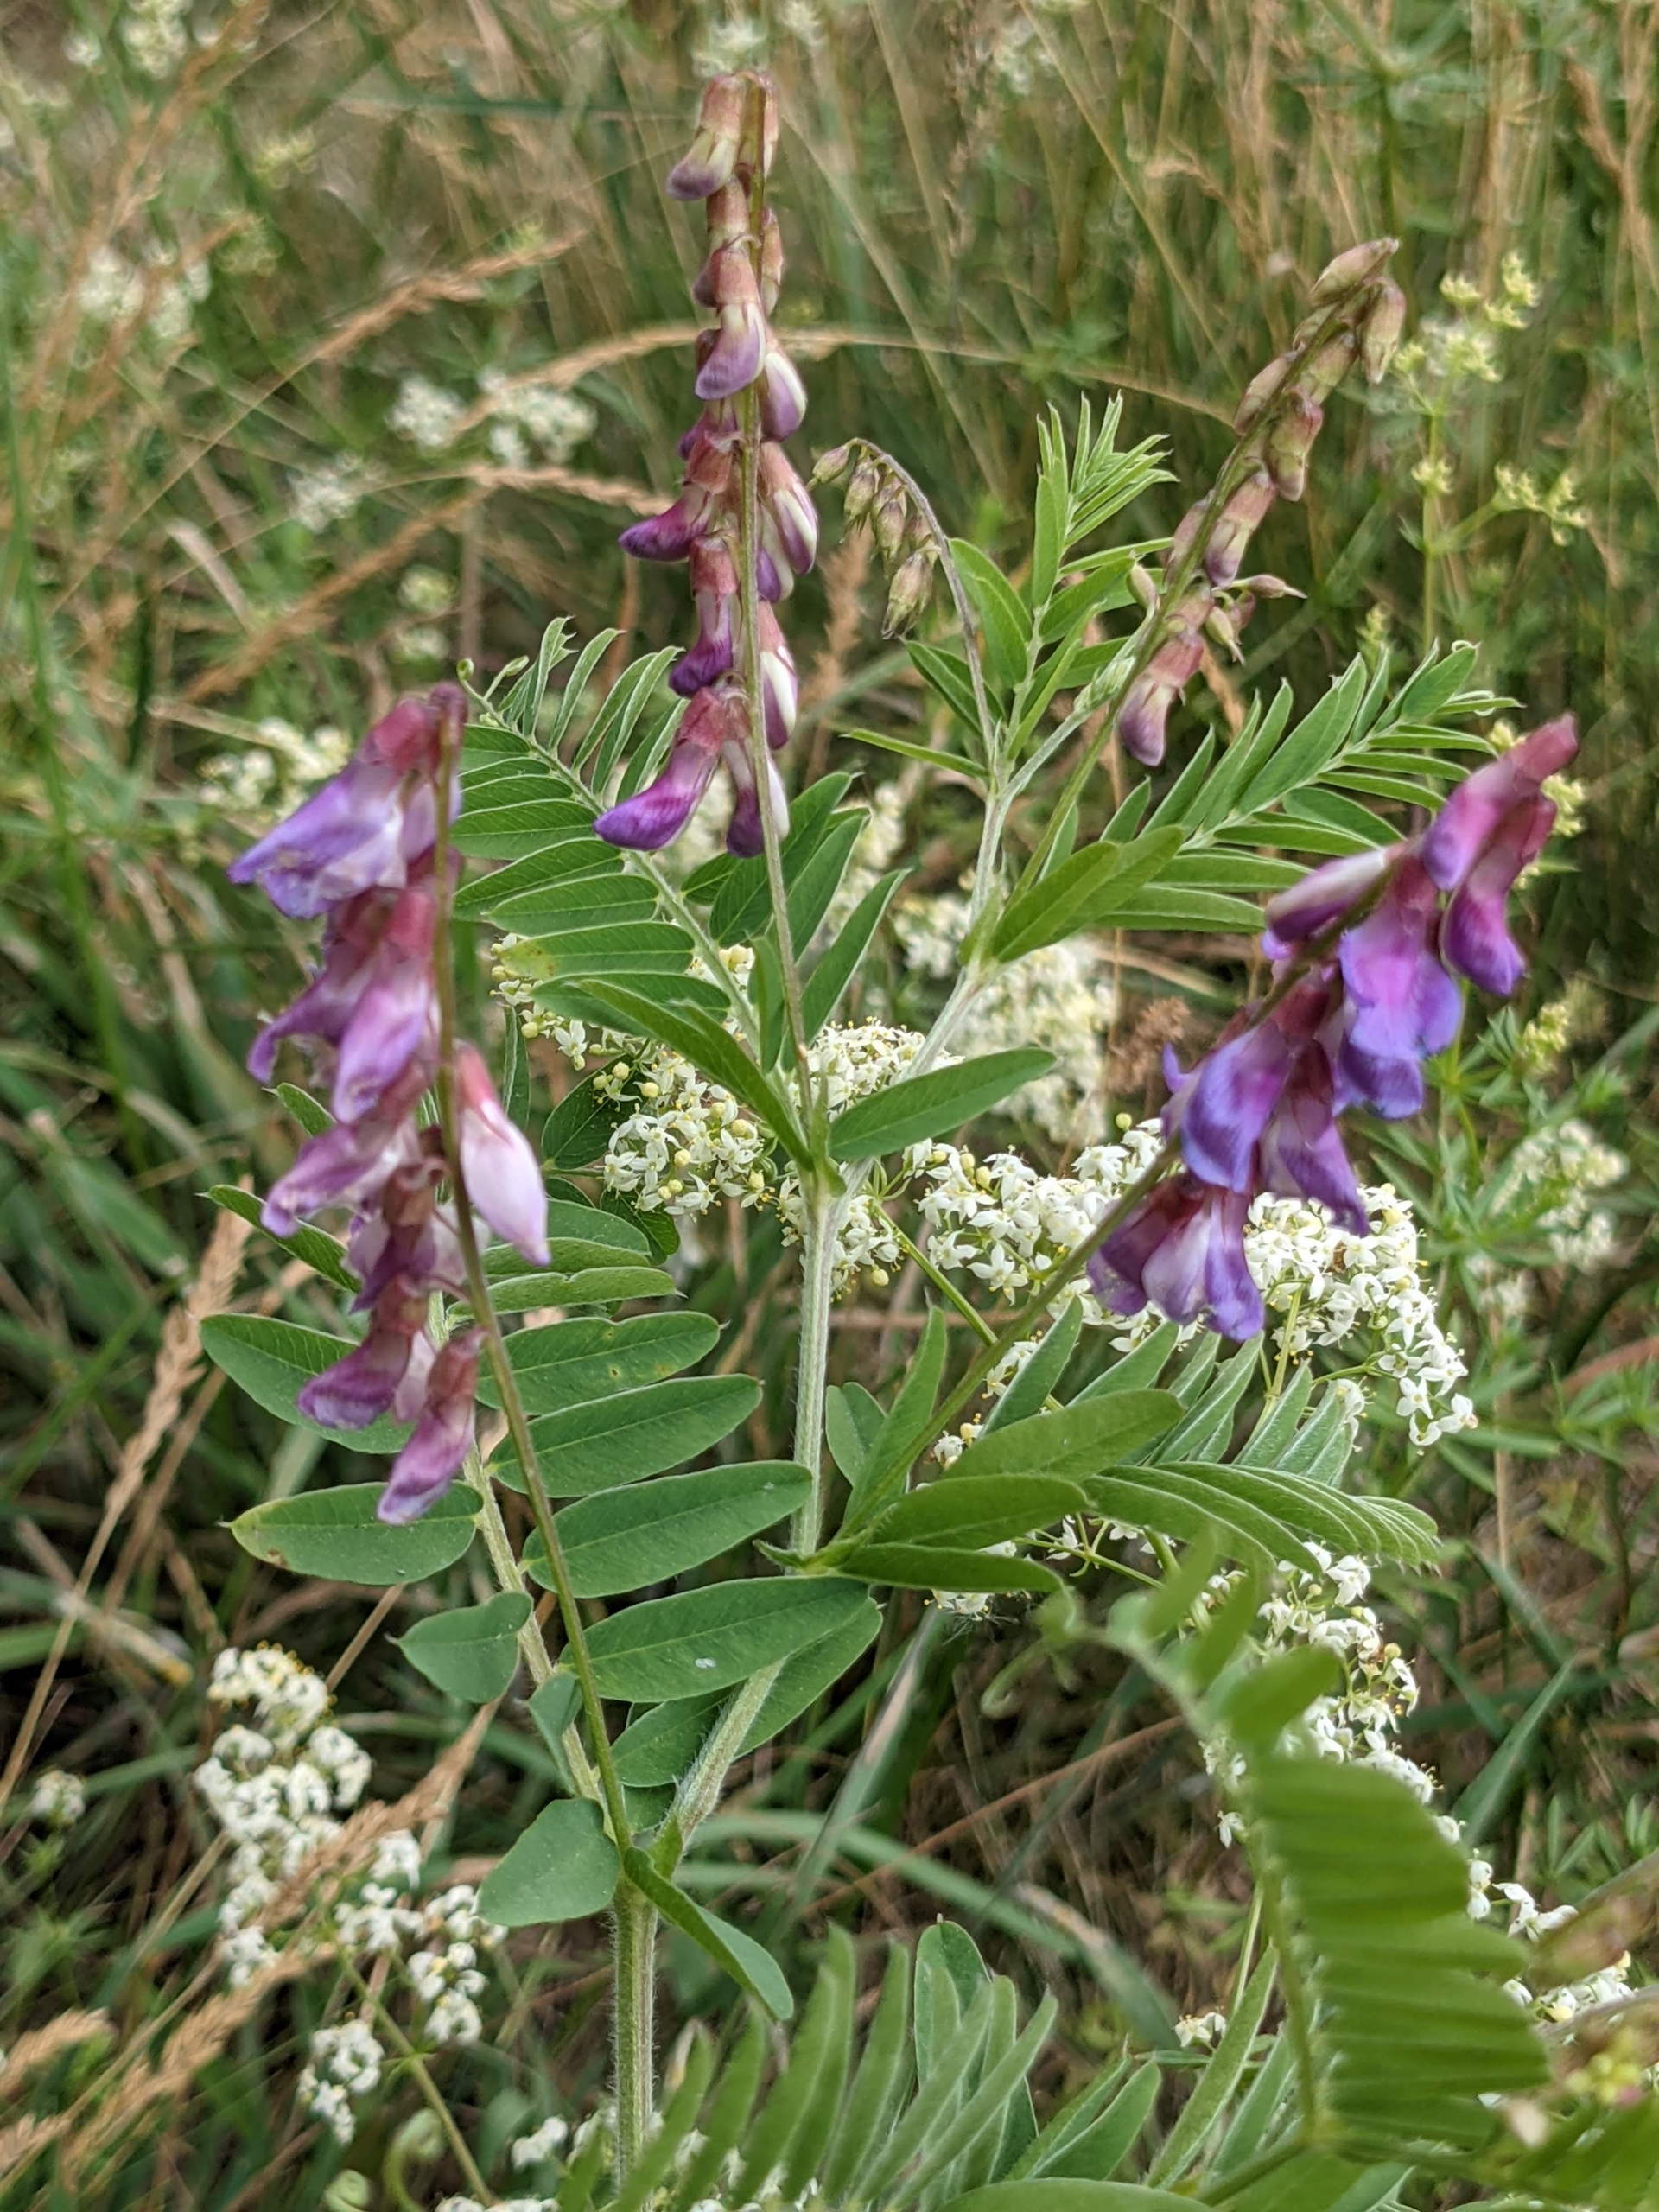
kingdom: Plantae
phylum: Tracheophyta
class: Magnoliopsida
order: Fabales
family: Fabaceae
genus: Vicia
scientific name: Vicia cassubica
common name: Kassubisk vikke
